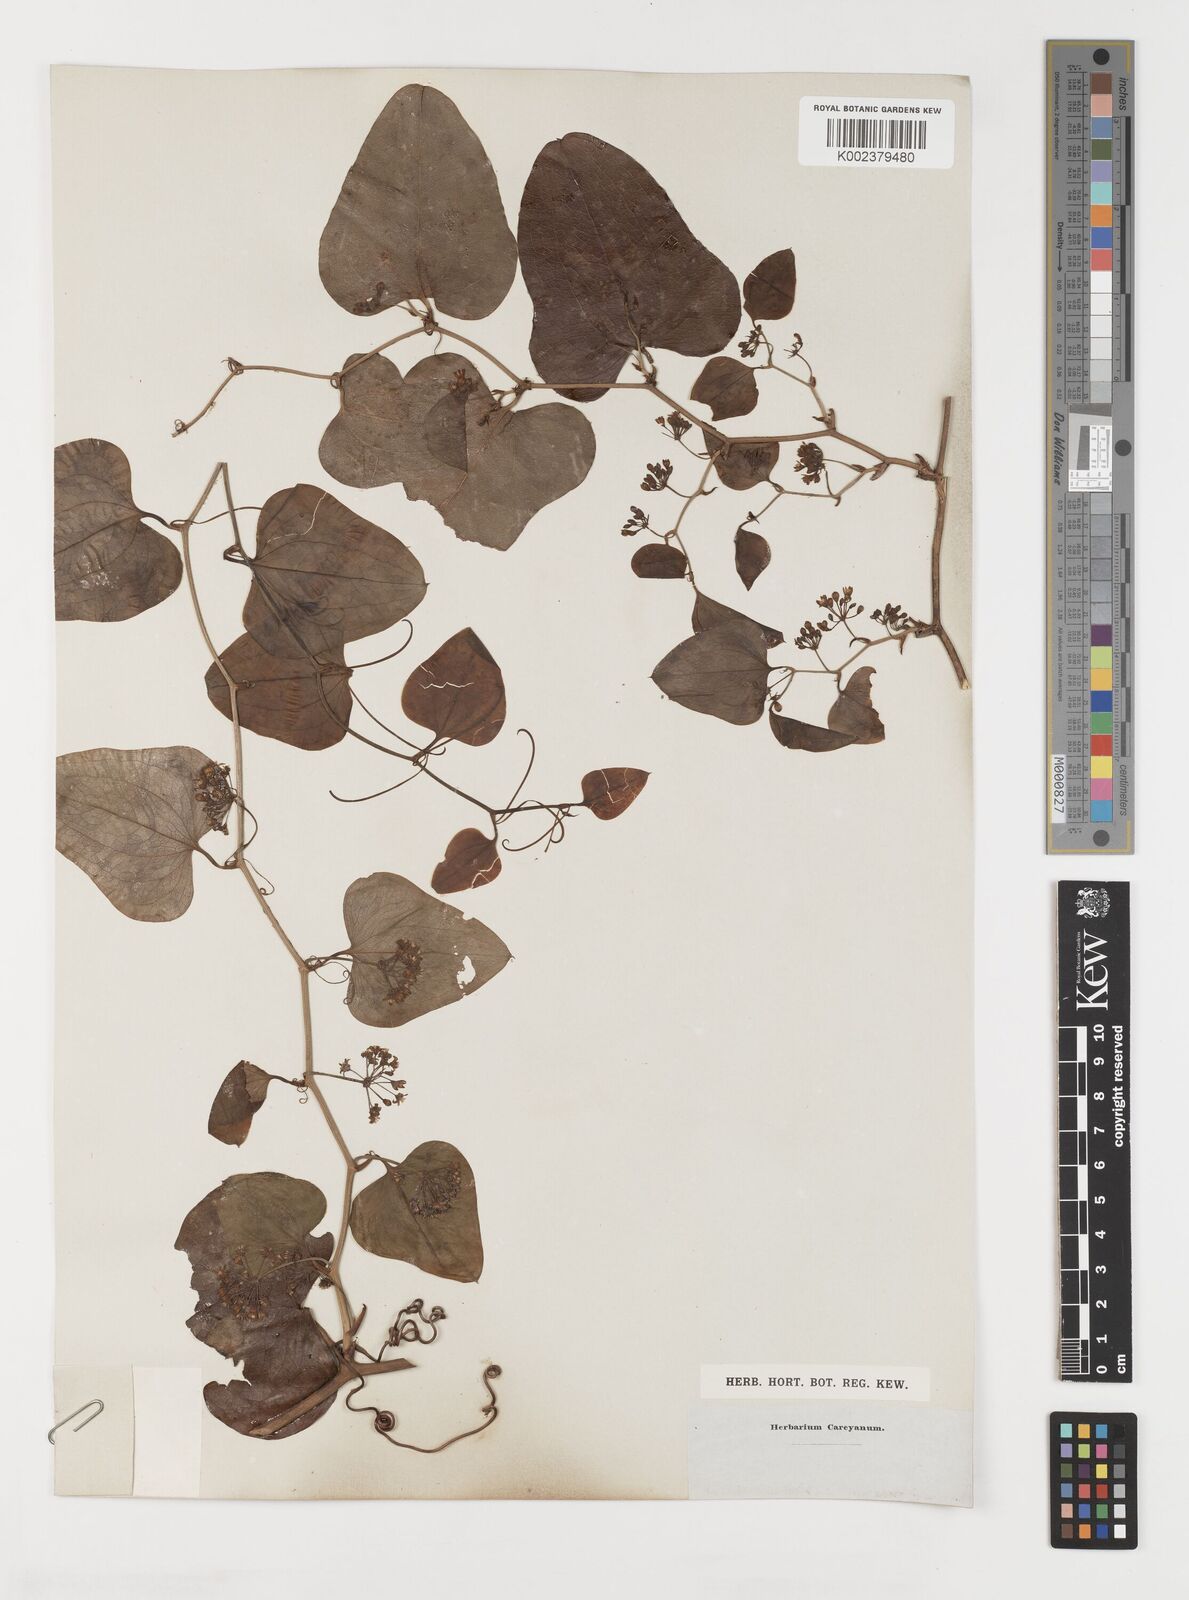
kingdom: Plantae
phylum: Tracheophyta
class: Liliopsida
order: Liliales
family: Smilacaceae
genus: Smilax
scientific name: Smilax
